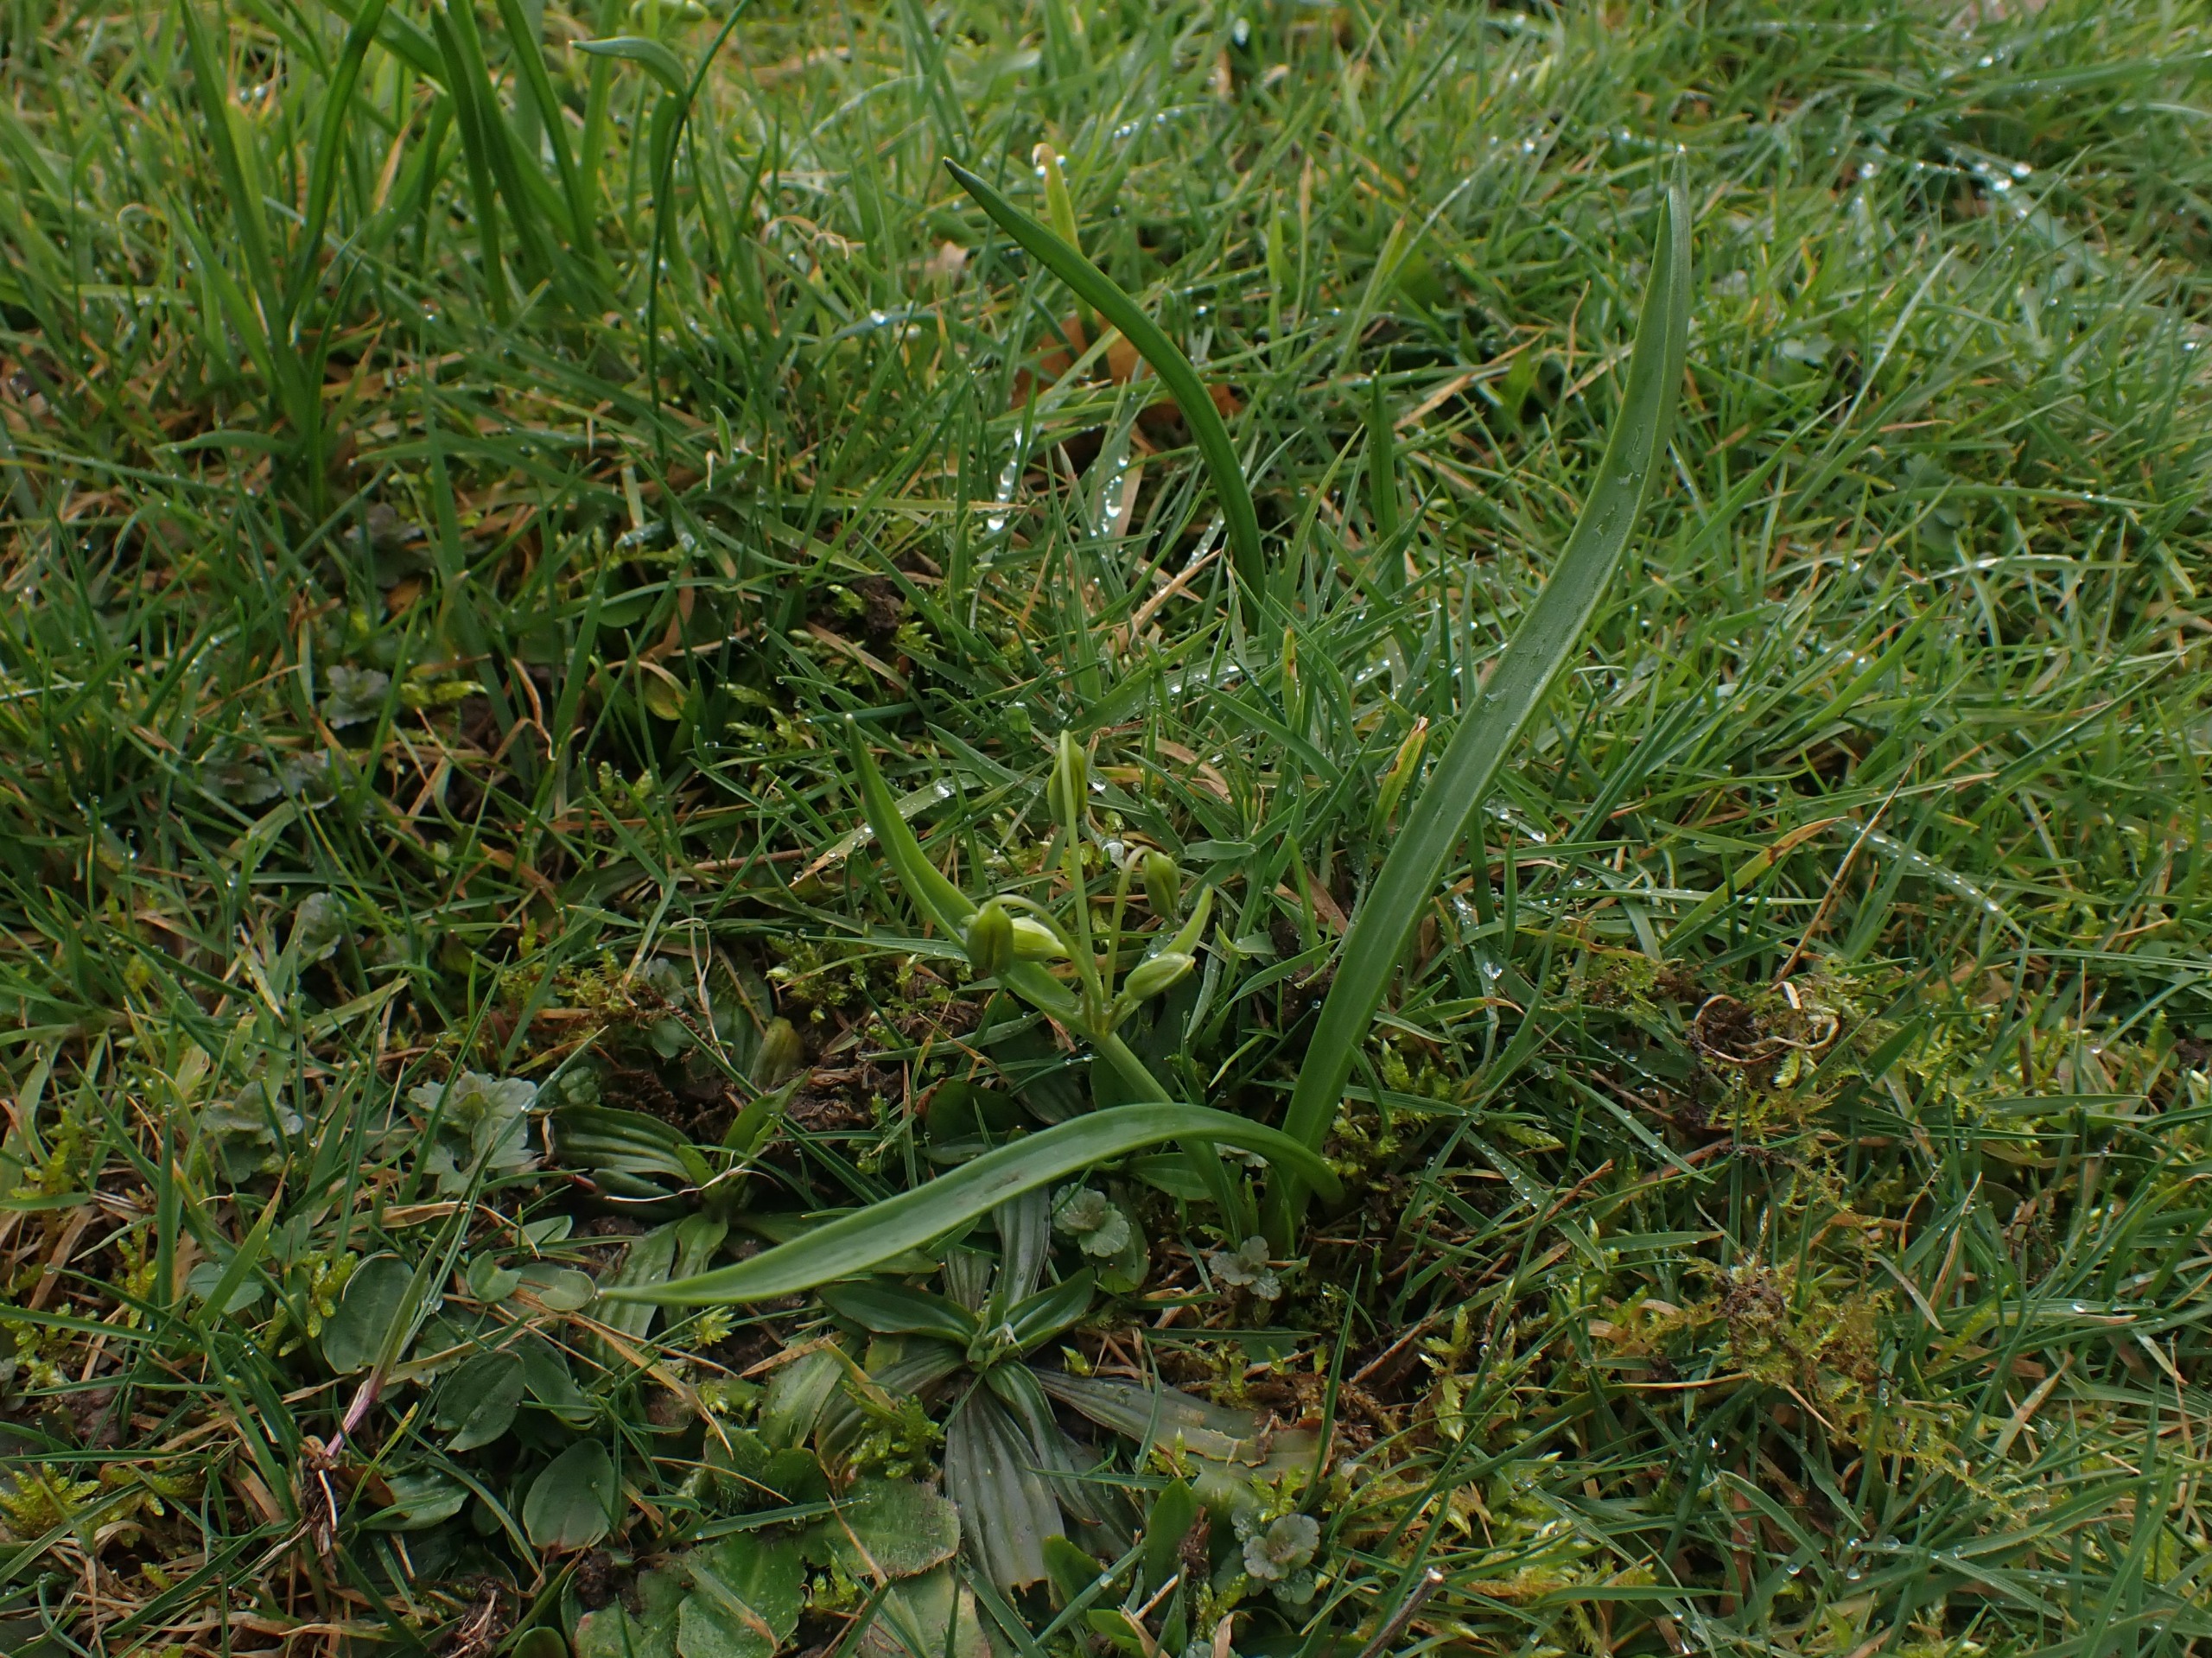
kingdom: Plantae
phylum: Tracheophyta
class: Liliopsida
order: Liliales
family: Liliaceae
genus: Gagea
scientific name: Gagea lutea
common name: Almindelig guldstjerne
